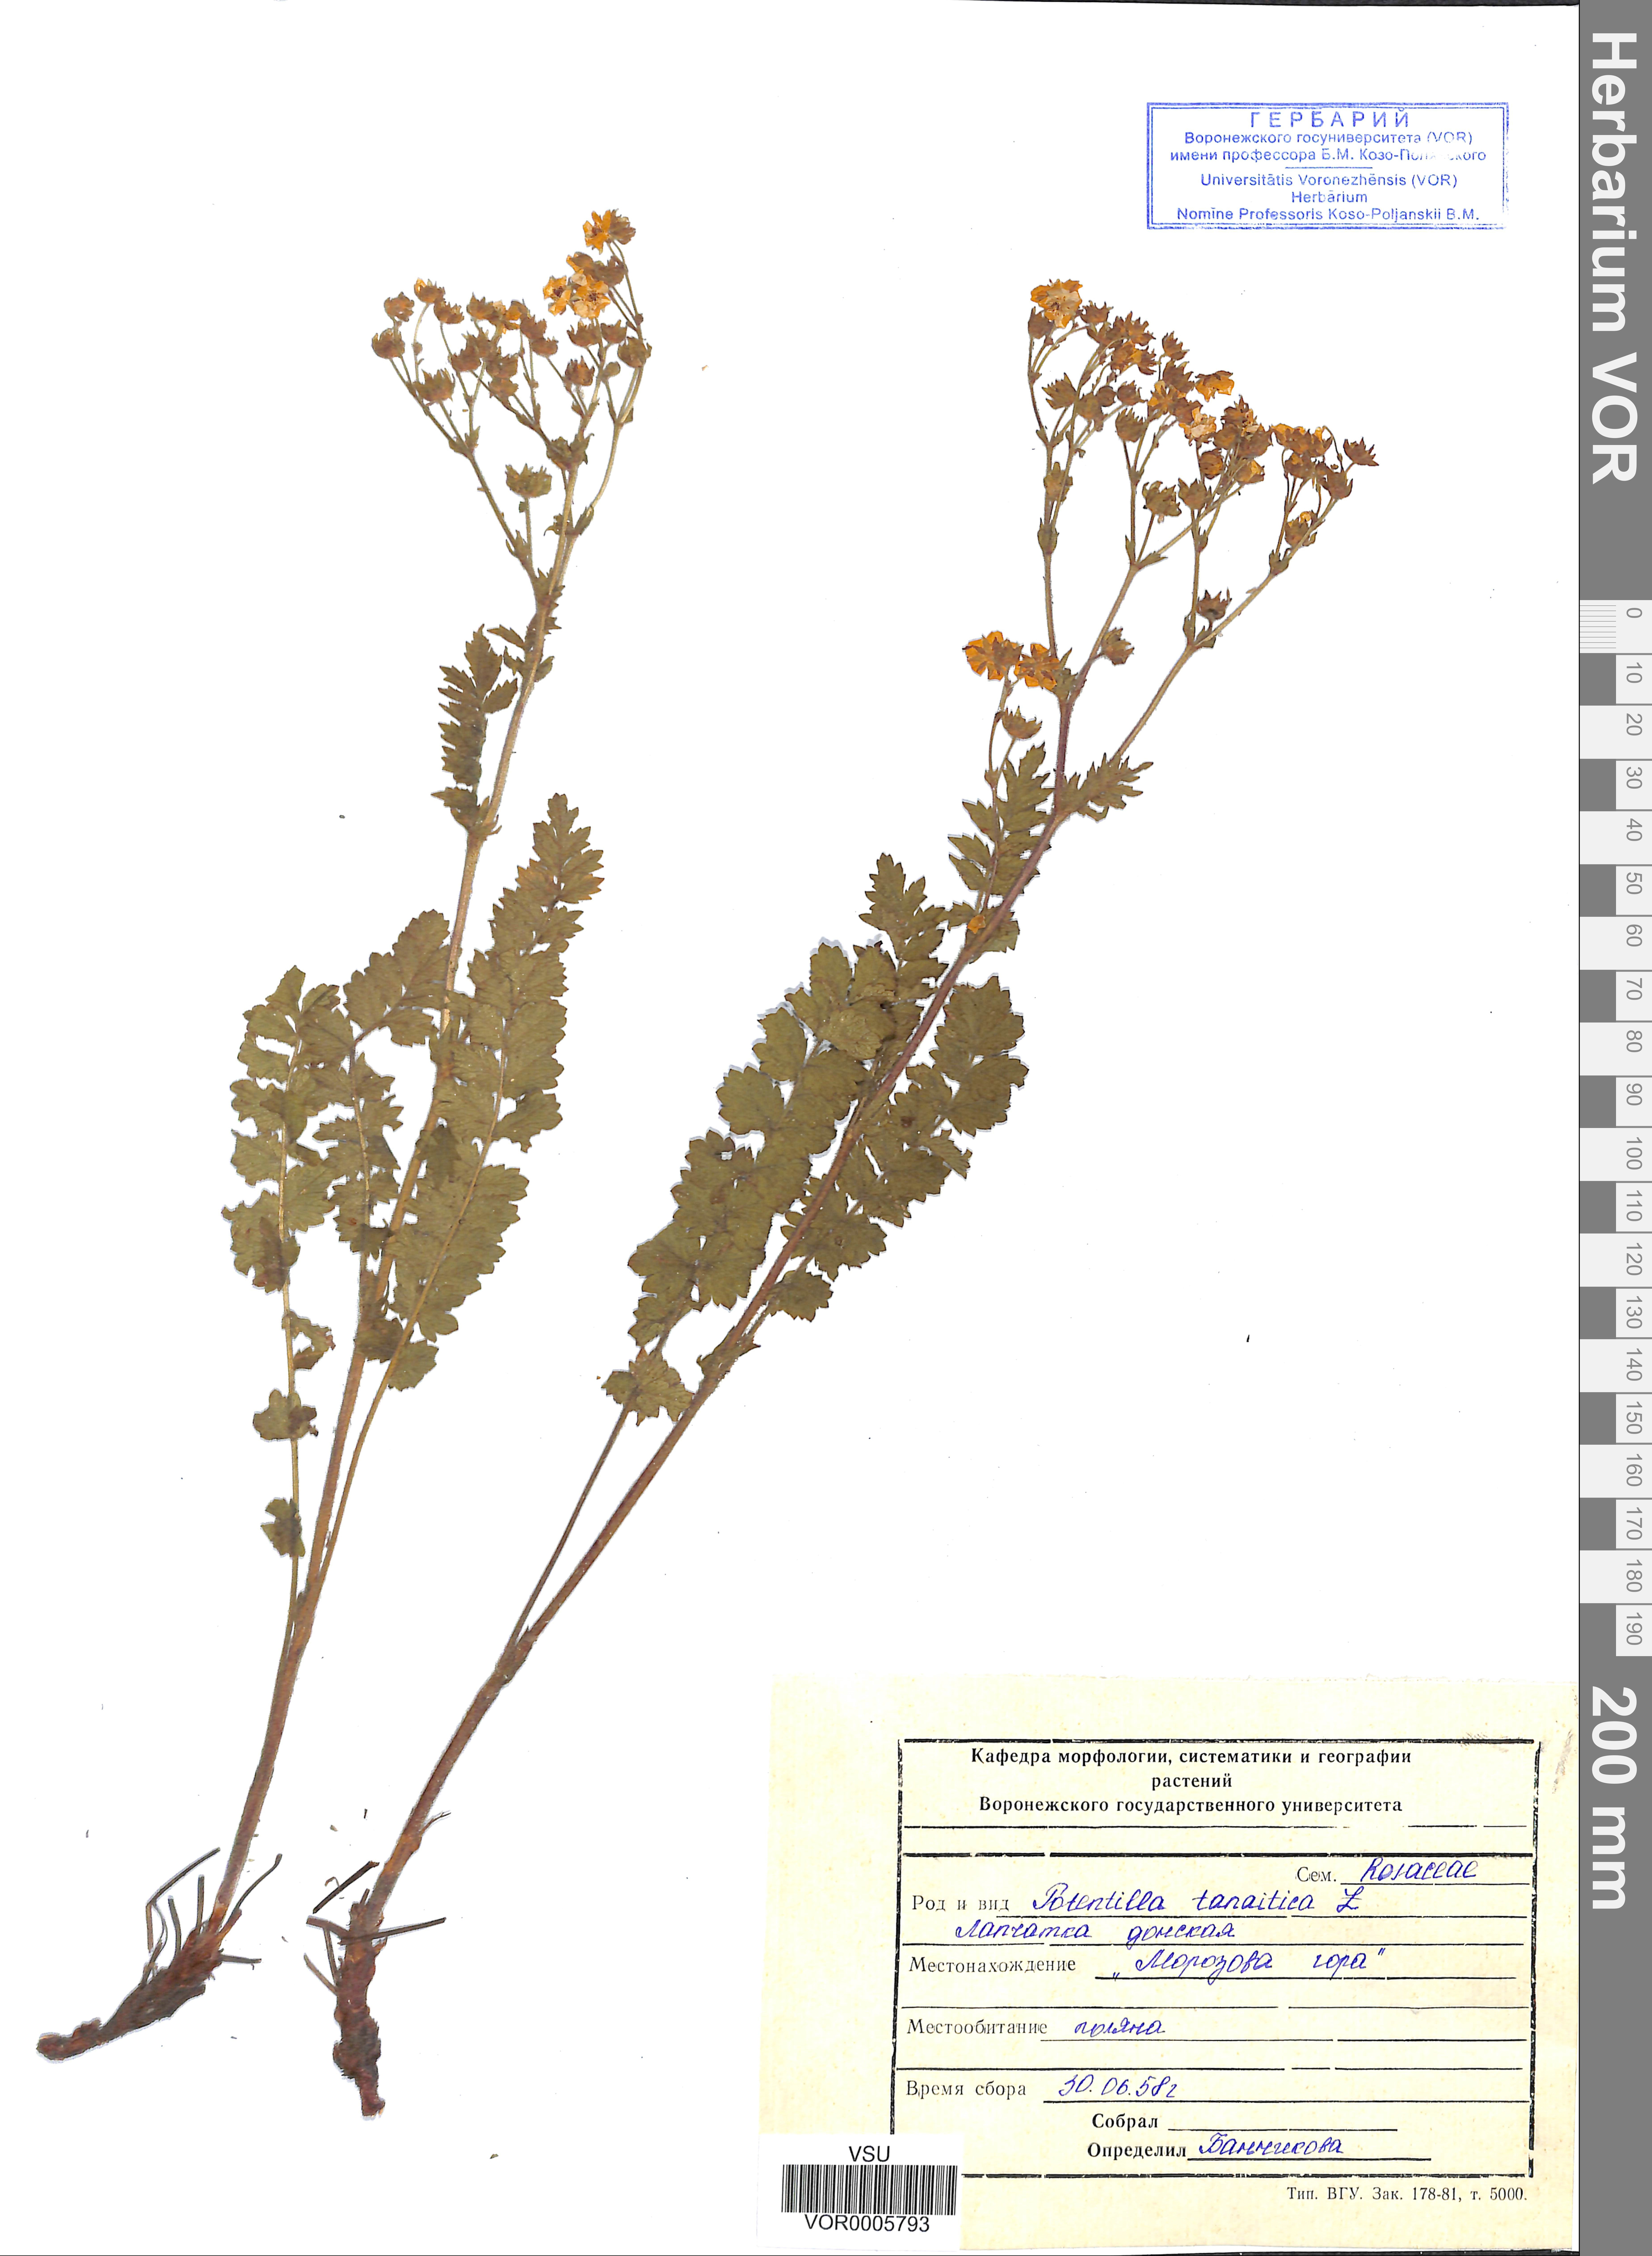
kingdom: Plantae
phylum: Tracheophyta
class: Magnoliopsida
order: Rosales
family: Rosaceae
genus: Potentilla
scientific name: Potentilla tanaitica
